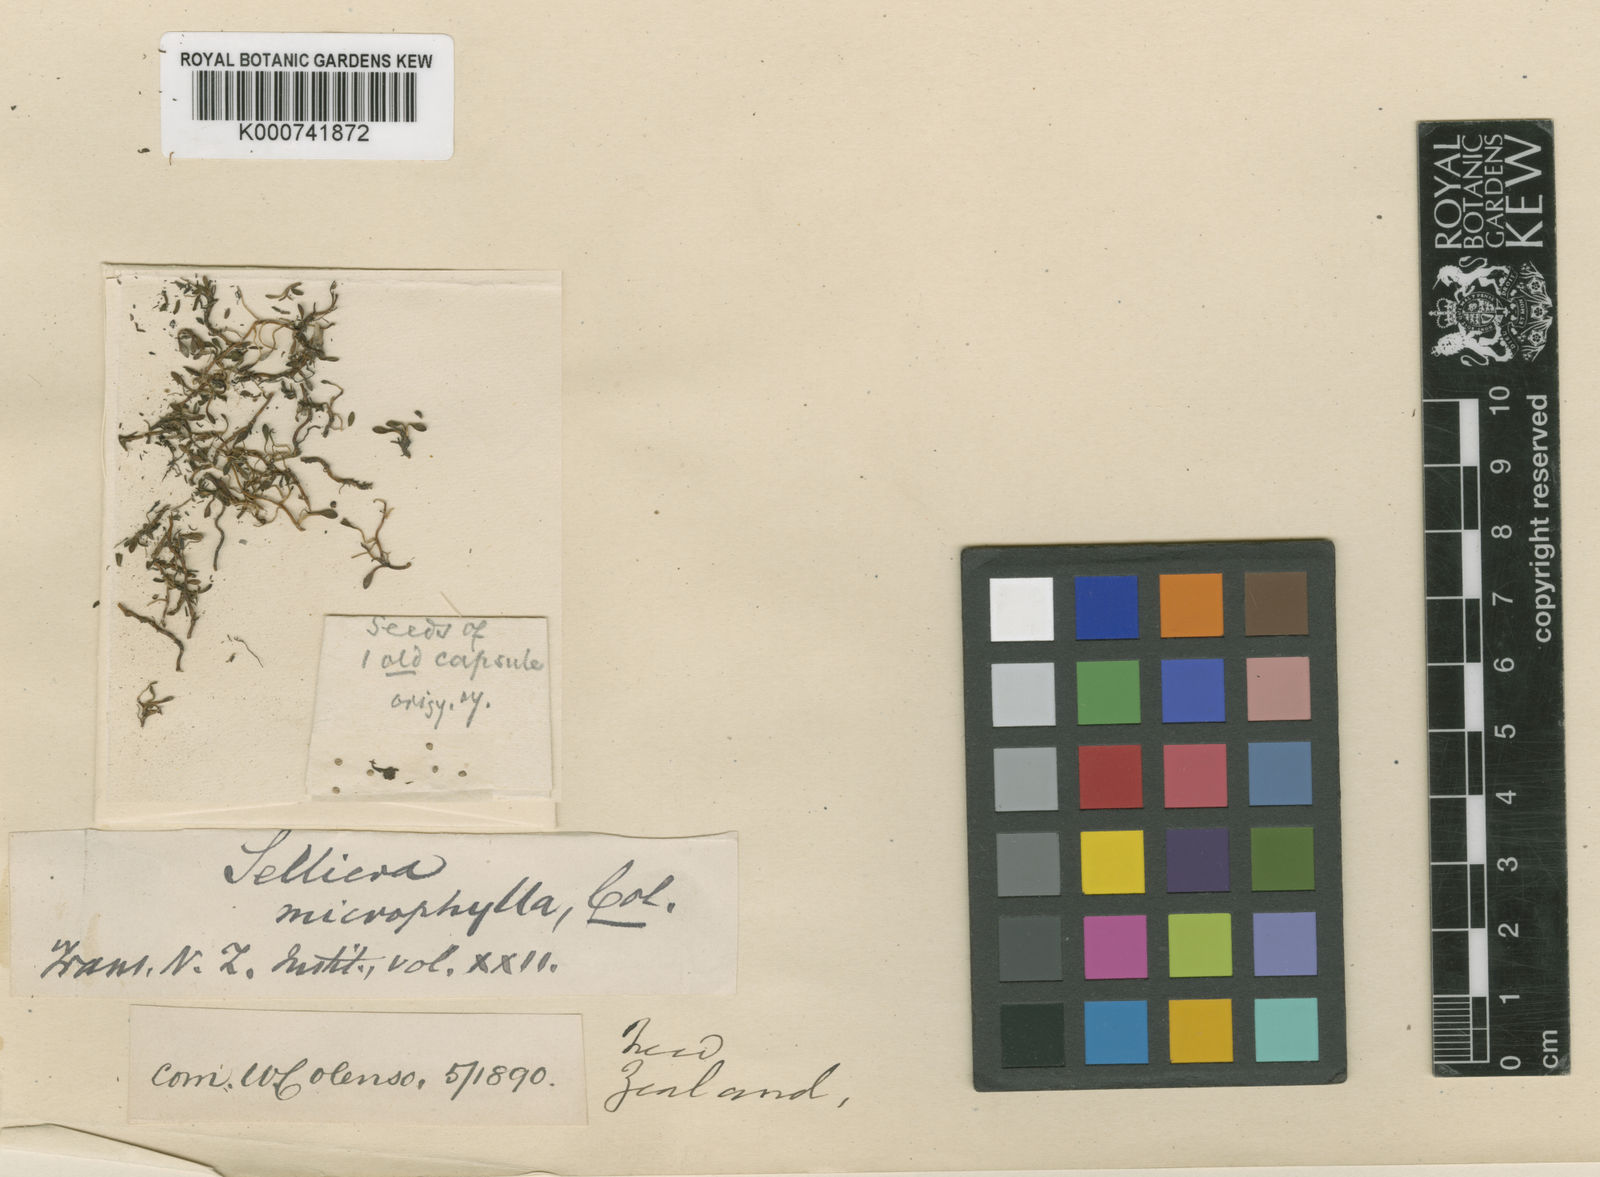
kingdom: Plantae
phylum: Tracheophyta
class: Magnoliopsida
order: Asterales
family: Goodeniaceae
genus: Goodenia
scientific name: Goodenia radicans
